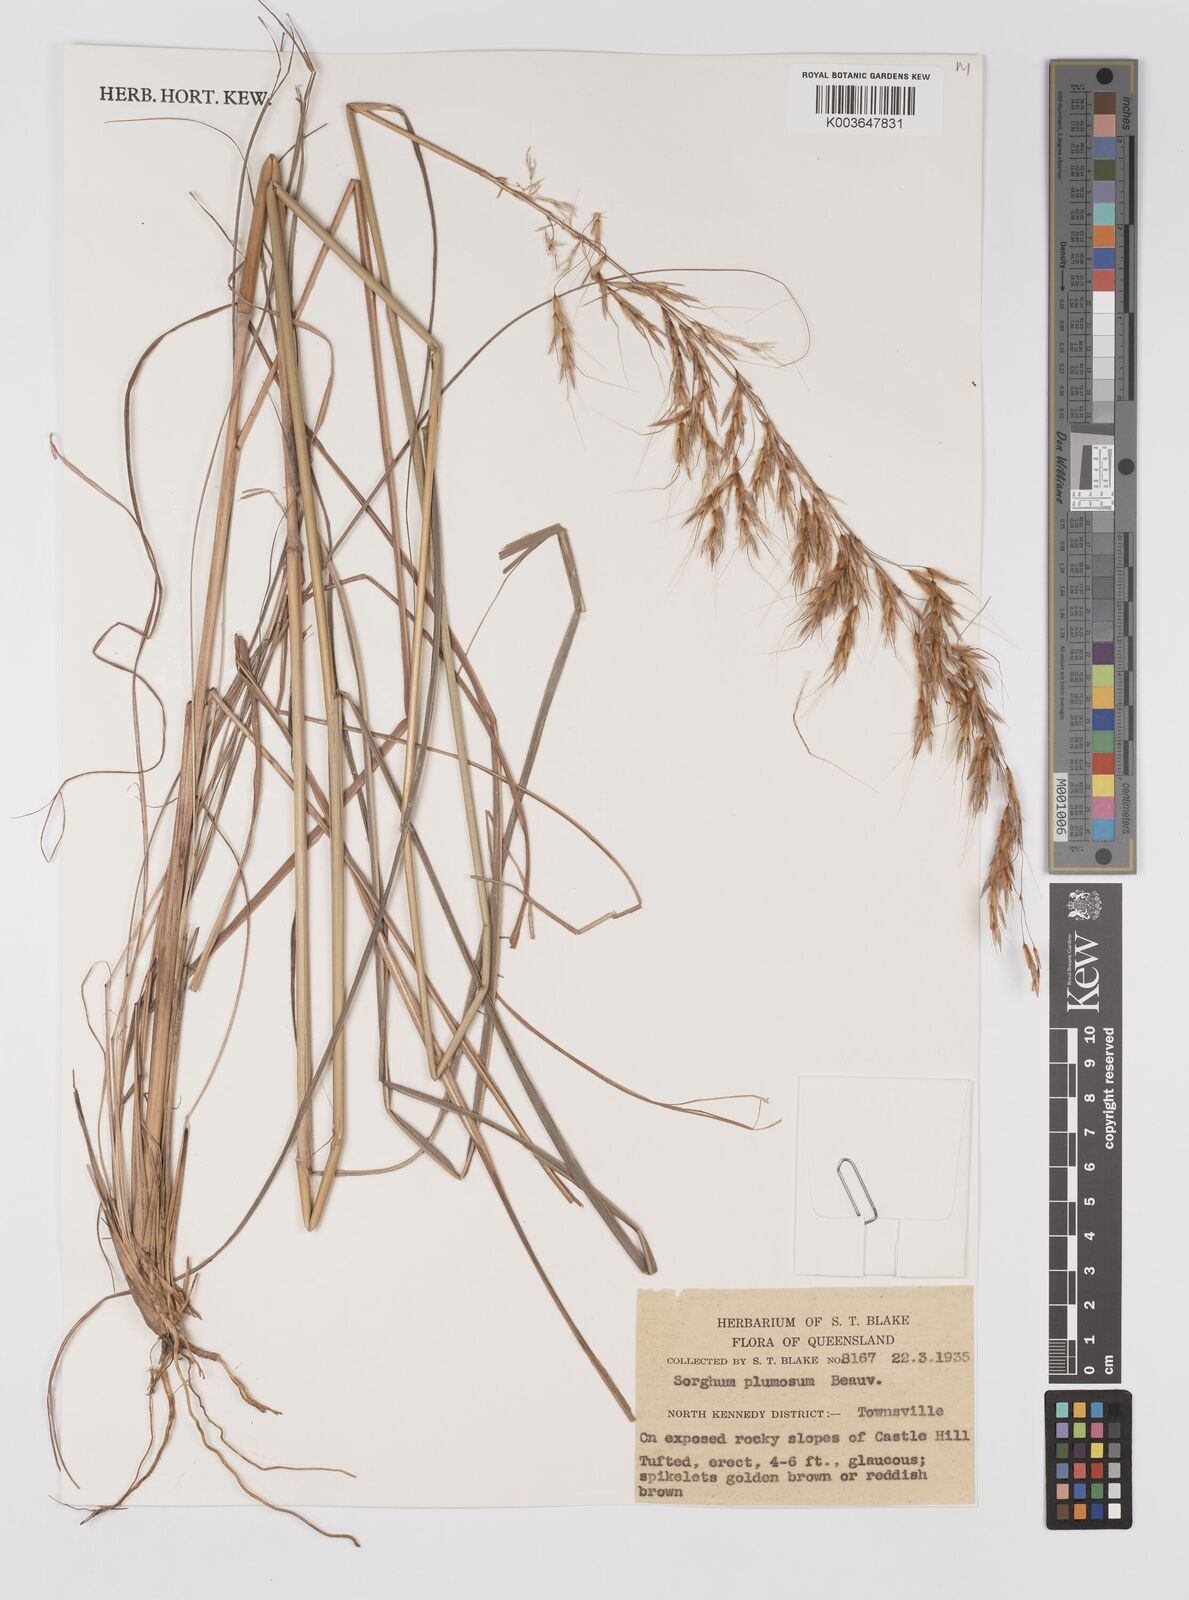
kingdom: Plantae
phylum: Tracheophyta
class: Liliopsida
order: Poales
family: Poaceae
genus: Sarga
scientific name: Sarga plumosa
